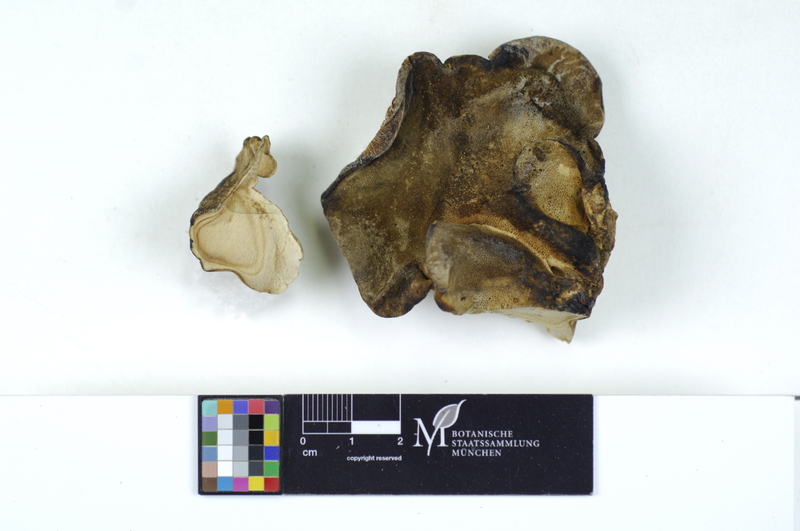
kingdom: Plantae
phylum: Tracheophyta
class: Magnoliopsida
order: Fagales
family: Fagaceae
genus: Quercus
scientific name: Quercus
